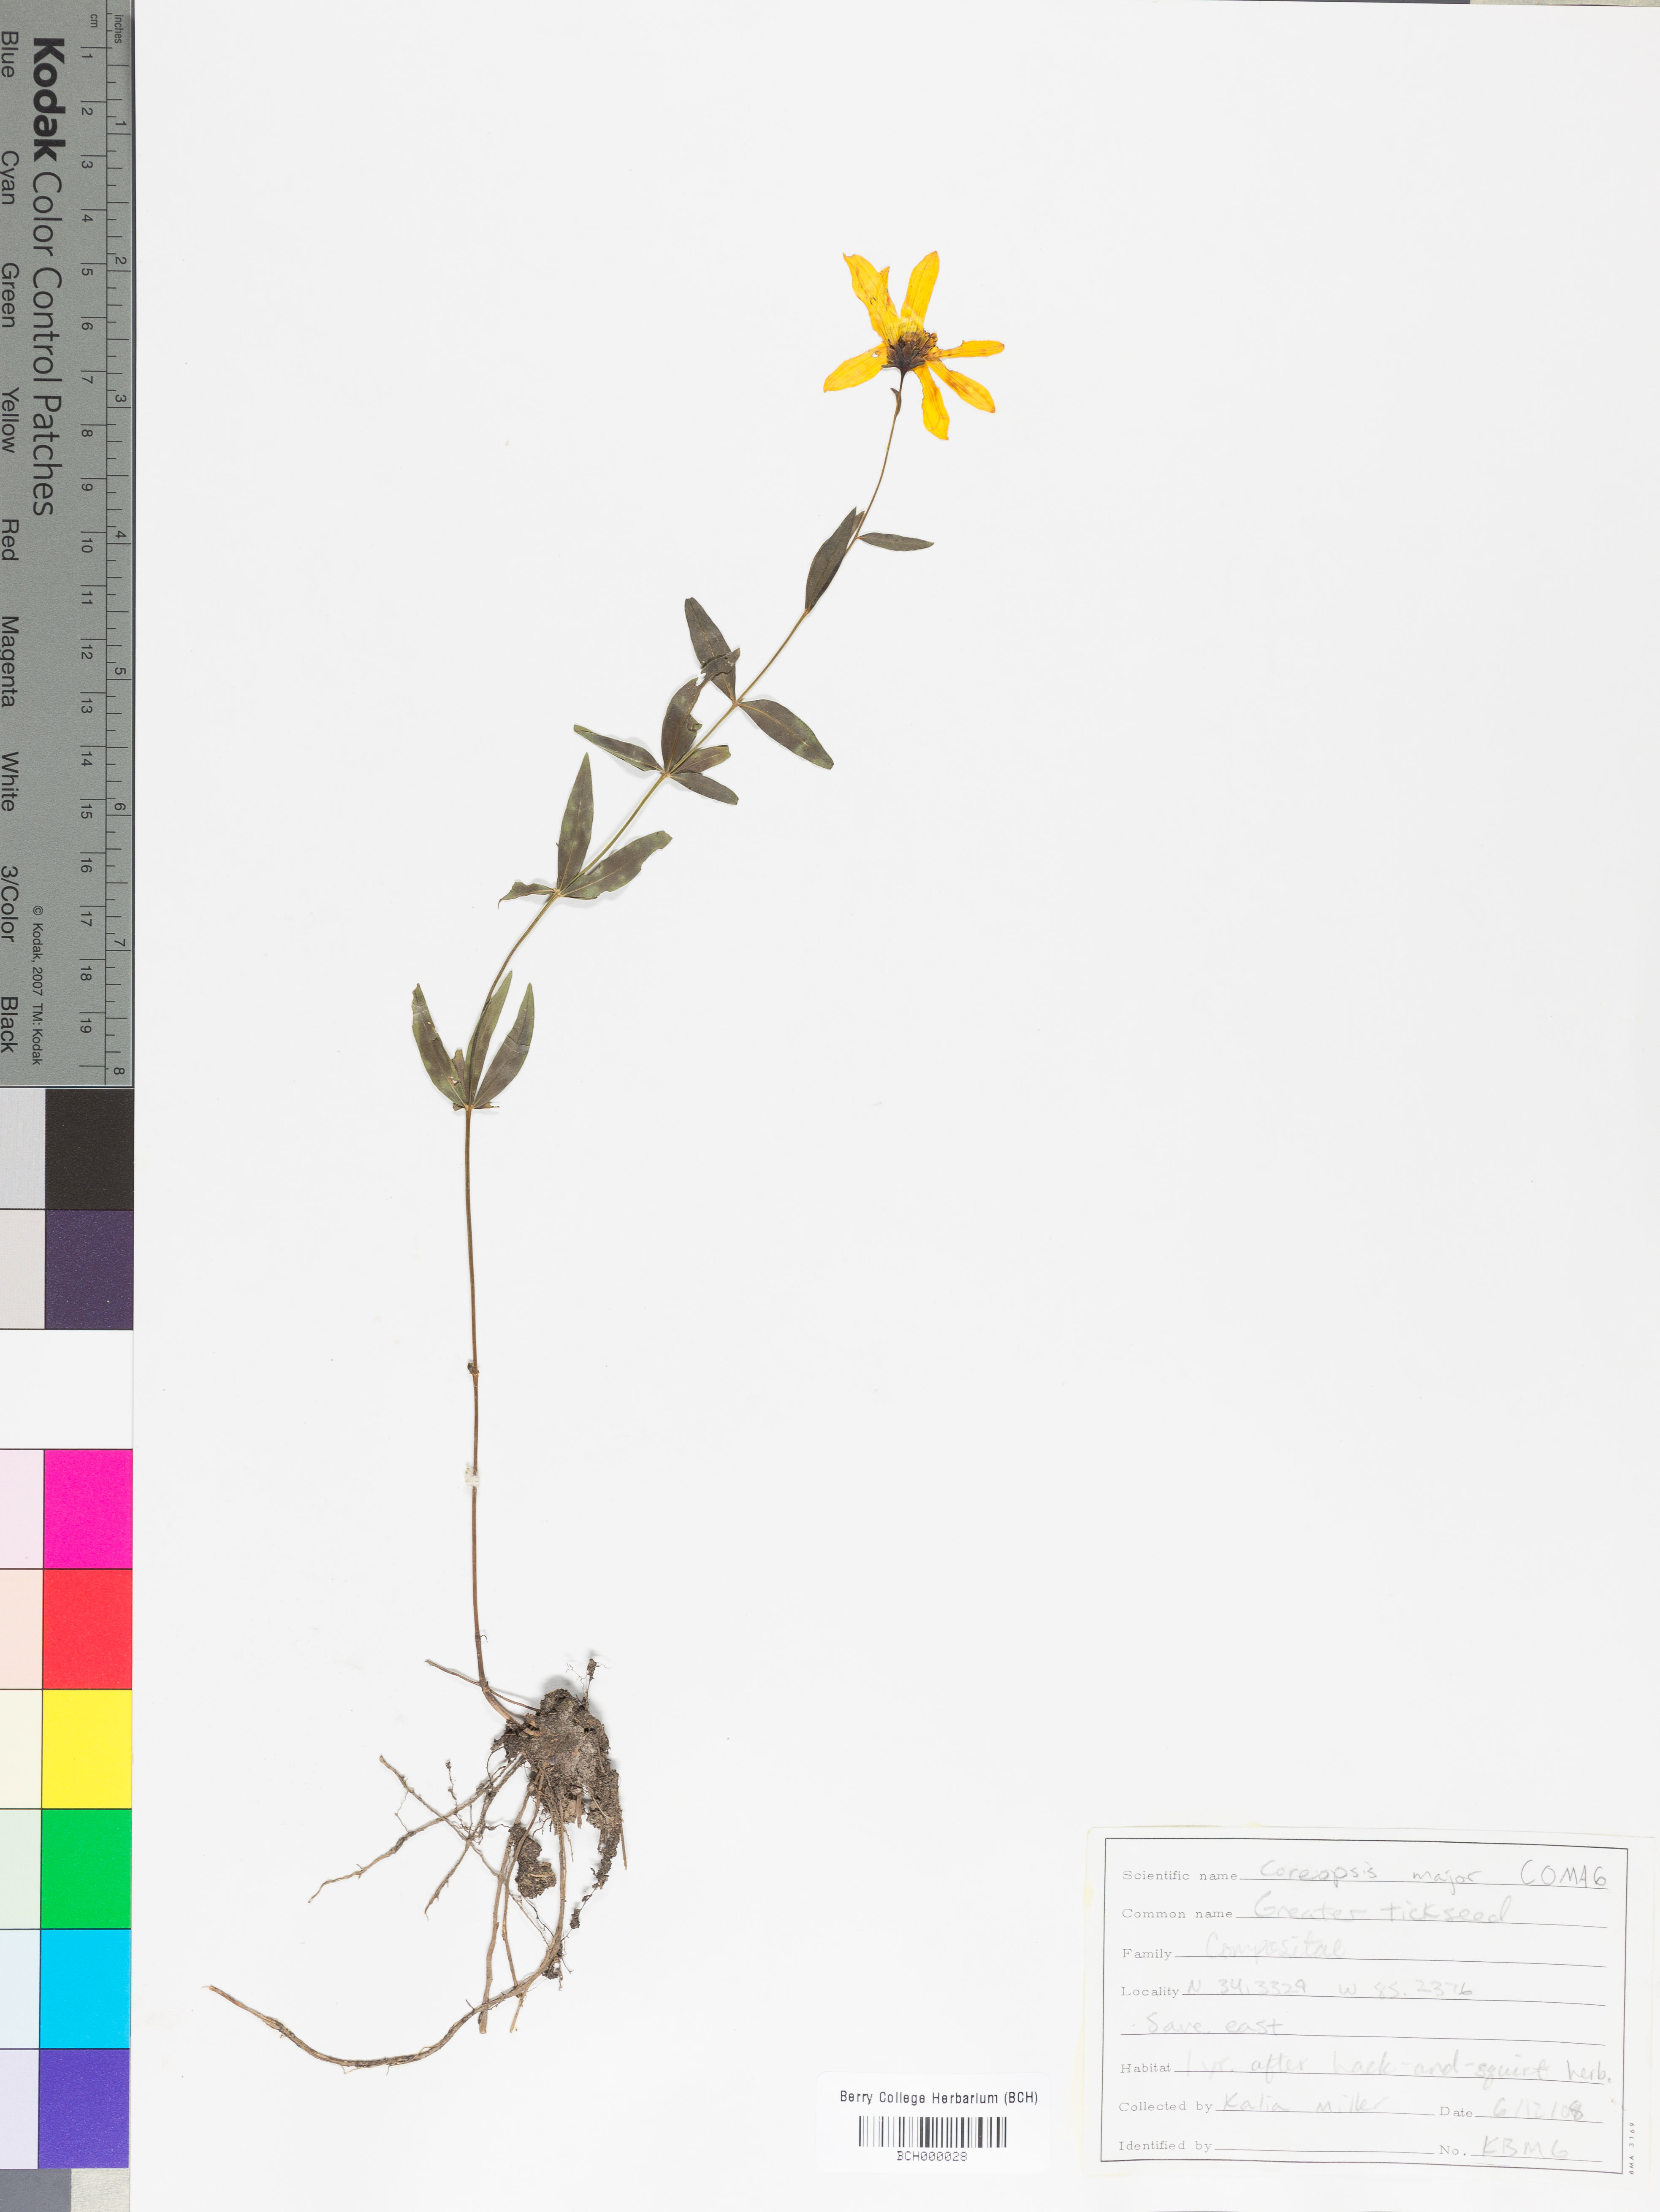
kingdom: Plantae
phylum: Tracheophyta
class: Magnoliopsida
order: Asterales
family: Asteraceae
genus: Coreopsis
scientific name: Coreopsis major
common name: Forest tickseed
